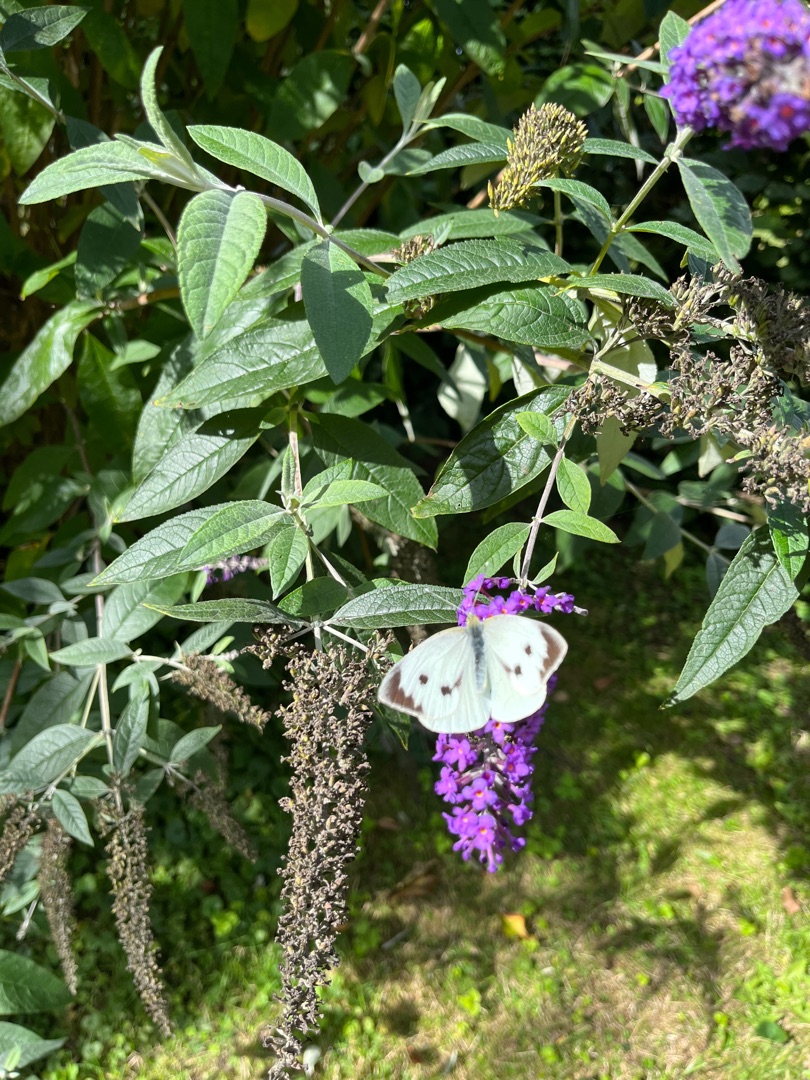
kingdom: Animalia
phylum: Arthropoda
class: Insecta
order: Lepidoptera
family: Pieridae
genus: Pieris
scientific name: Pieris brassicae
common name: Stor kålsommerfugl
